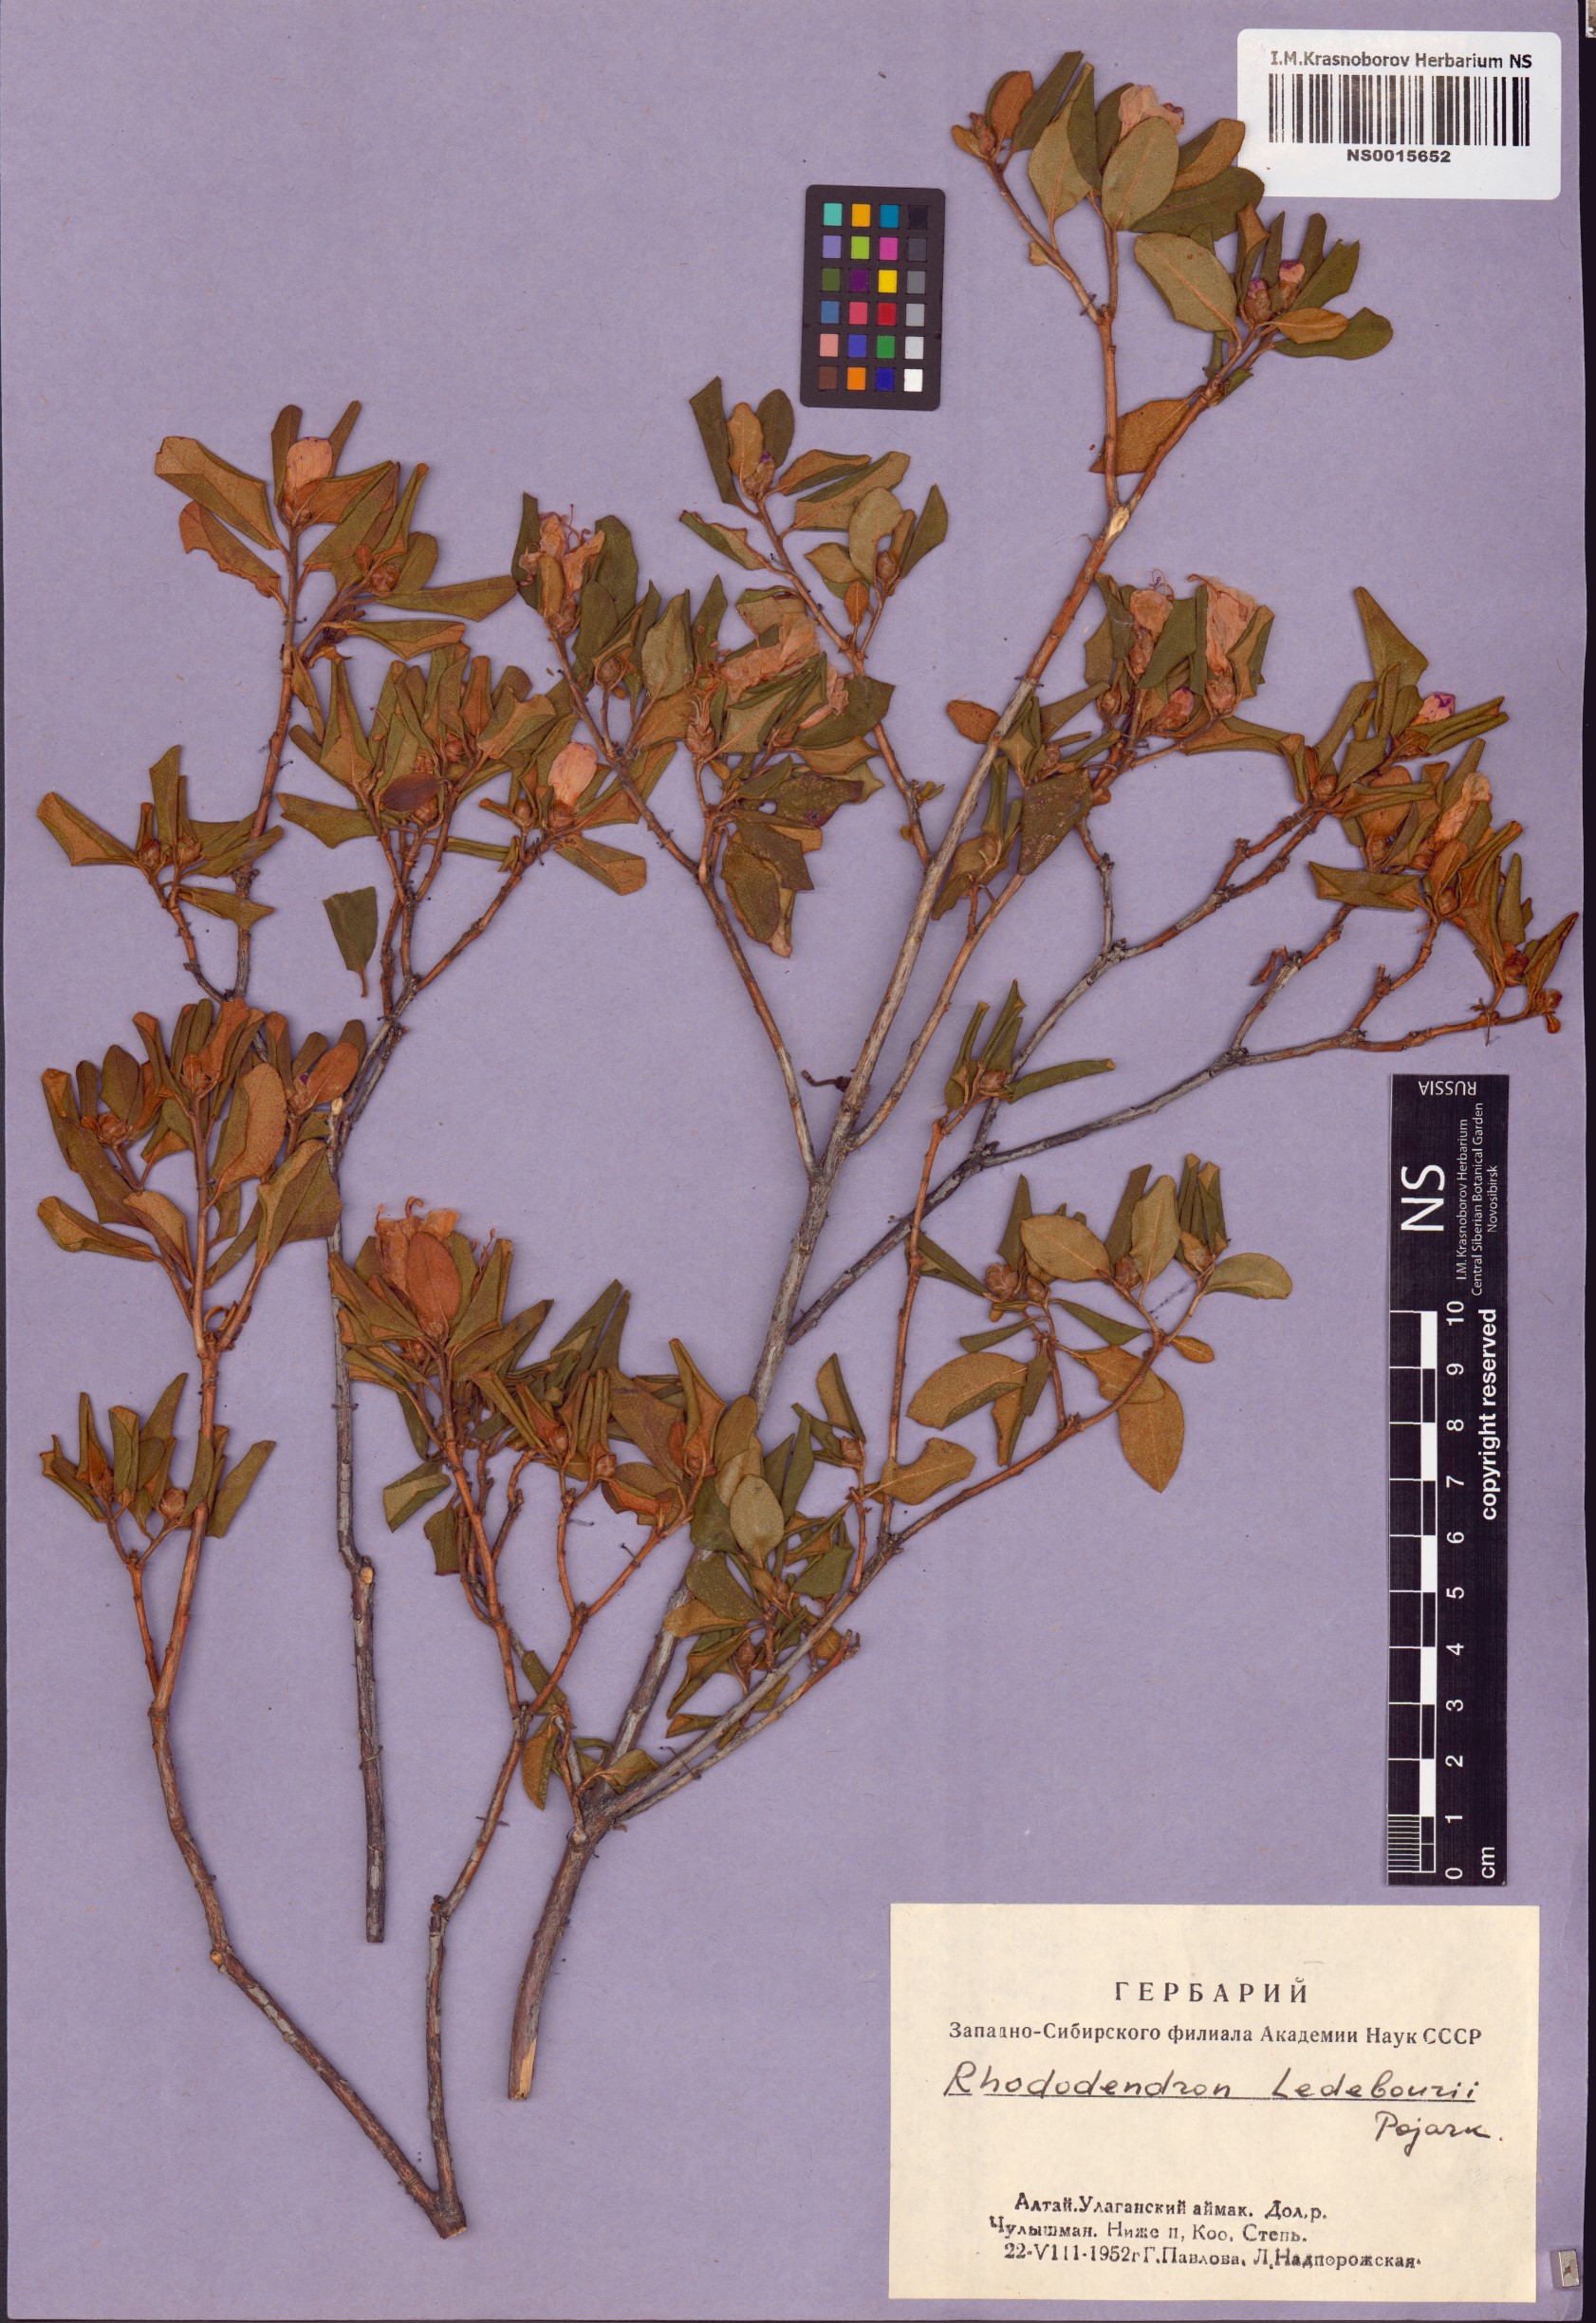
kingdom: Plantae
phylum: Tracheophyta
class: Magnoliopsida
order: Ericales
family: Ericaceae
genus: Rhododendron
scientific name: Rhododendron dauricum
